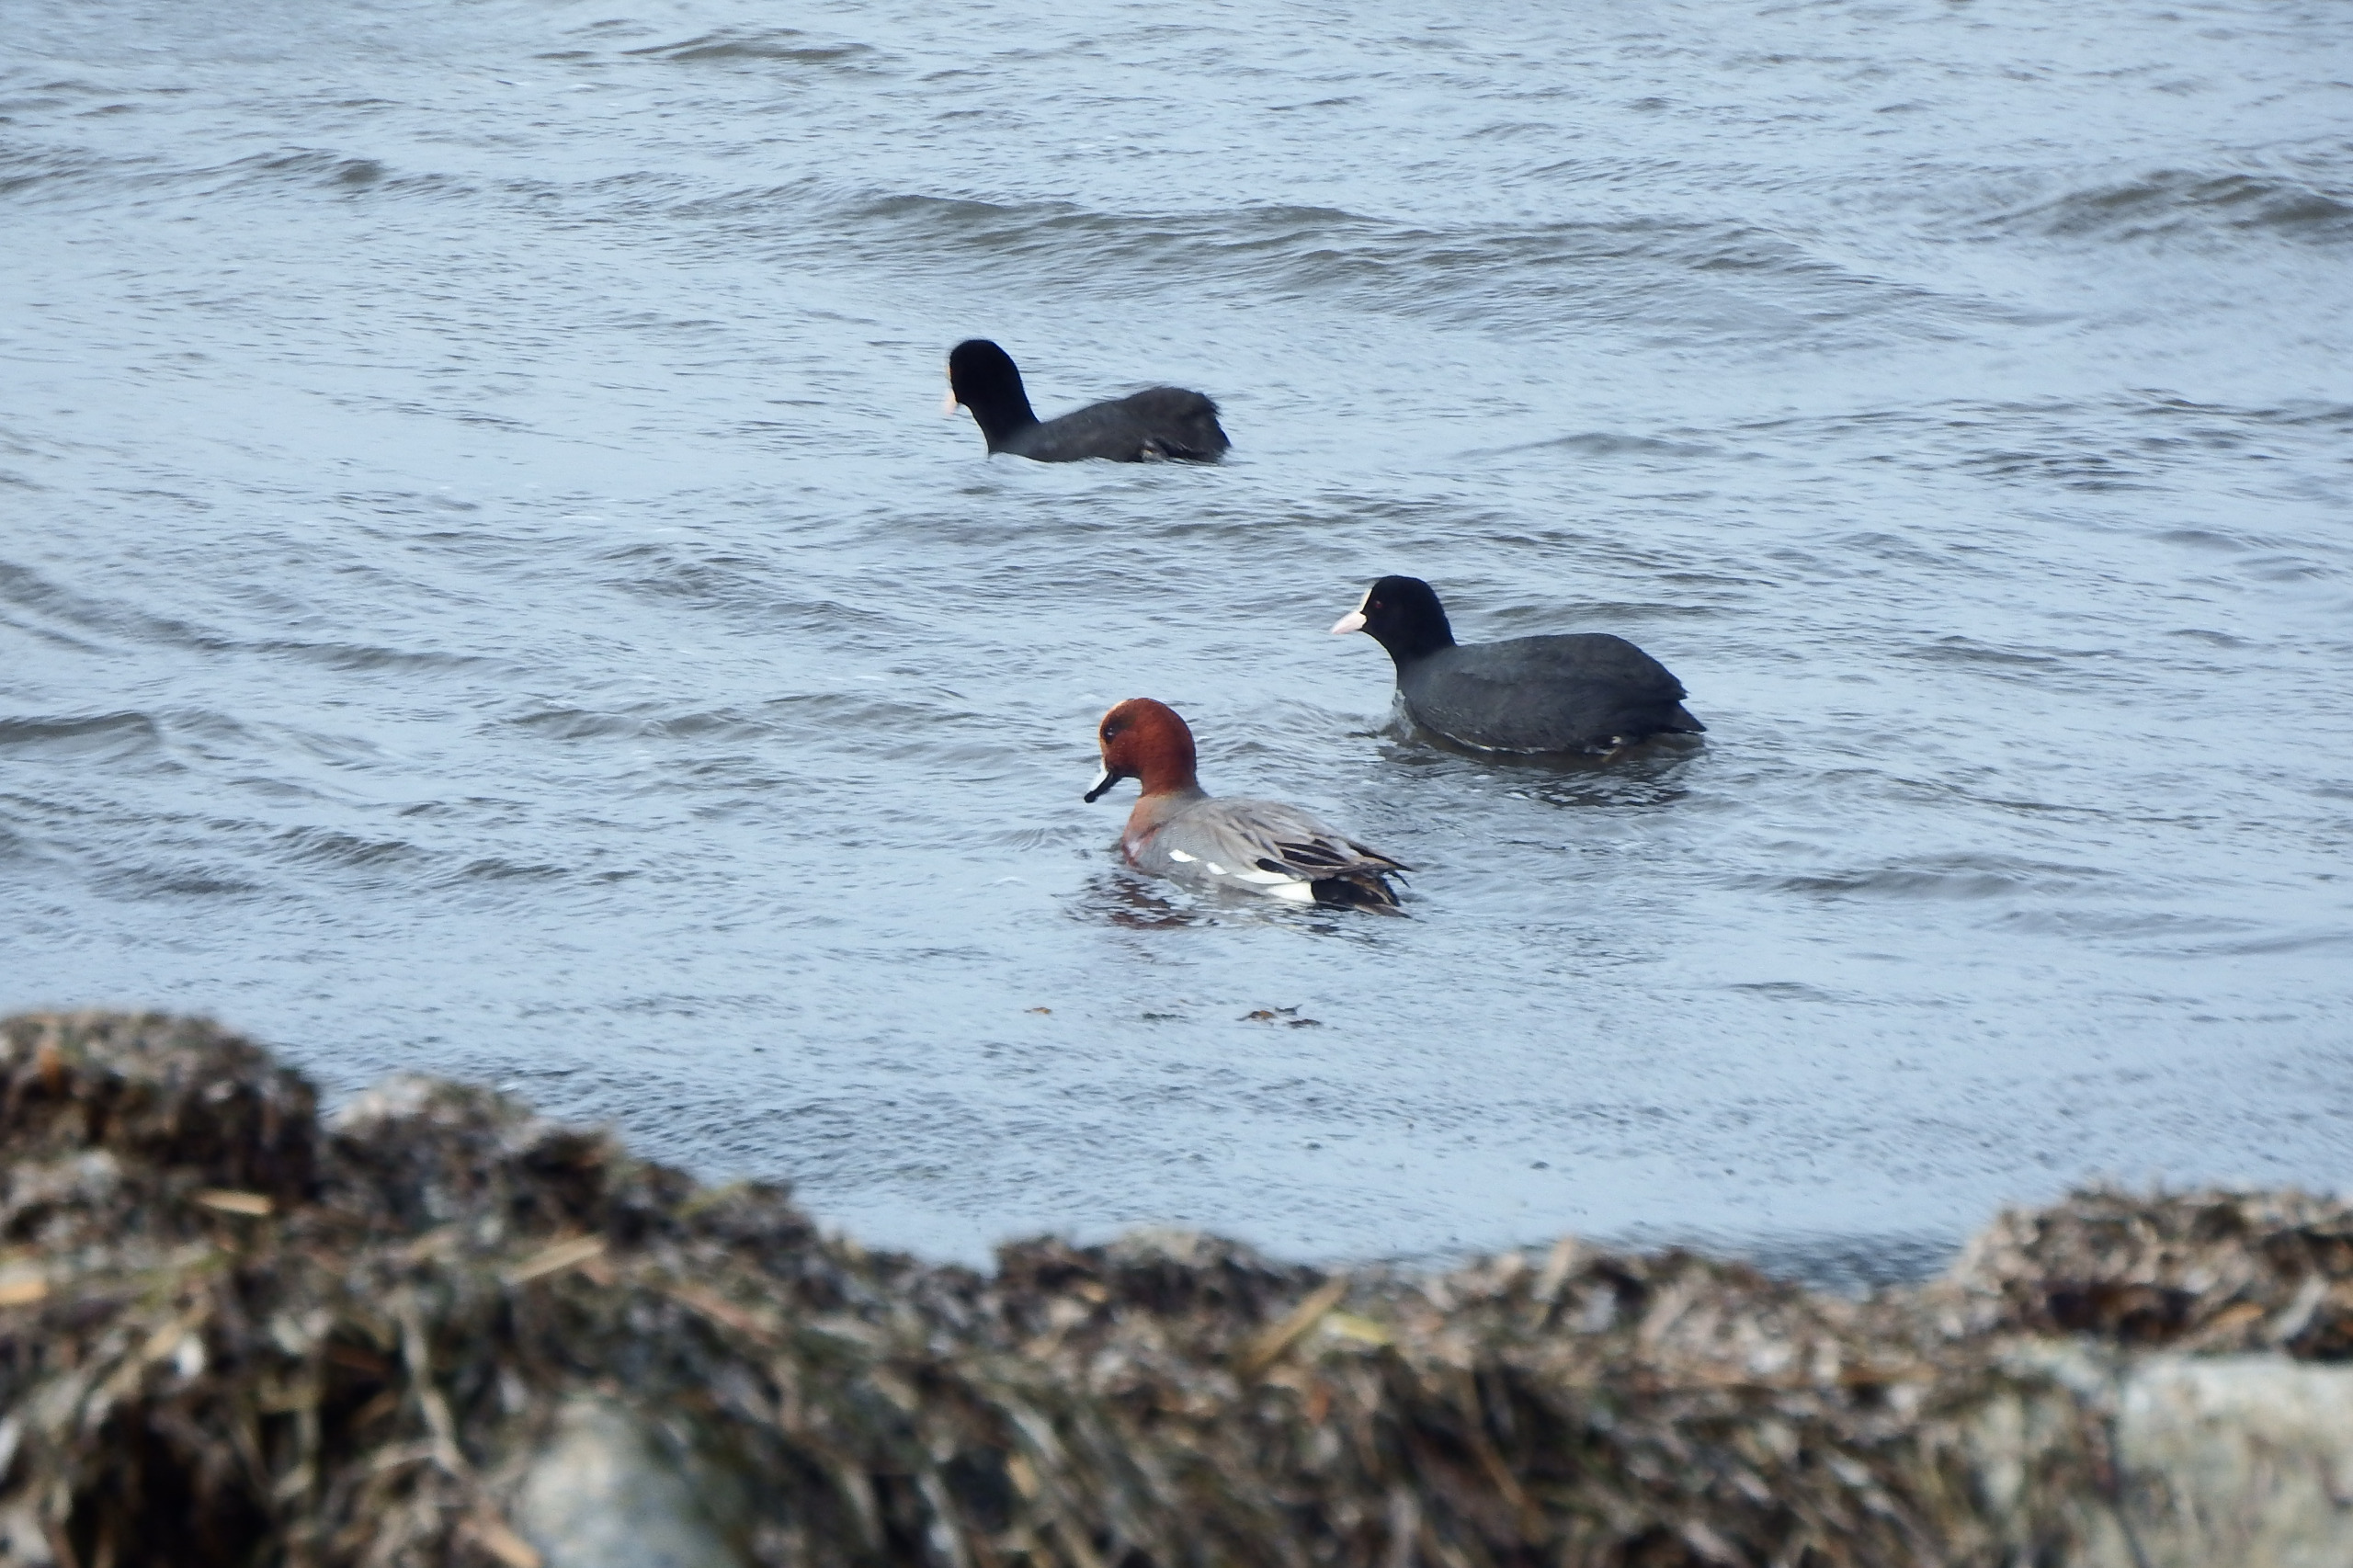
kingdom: Animalia
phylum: Chordata
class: Aves
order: Anseriformes
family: Anatidae
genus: Mareca
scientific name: Mareca penelope
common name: Pibeand
